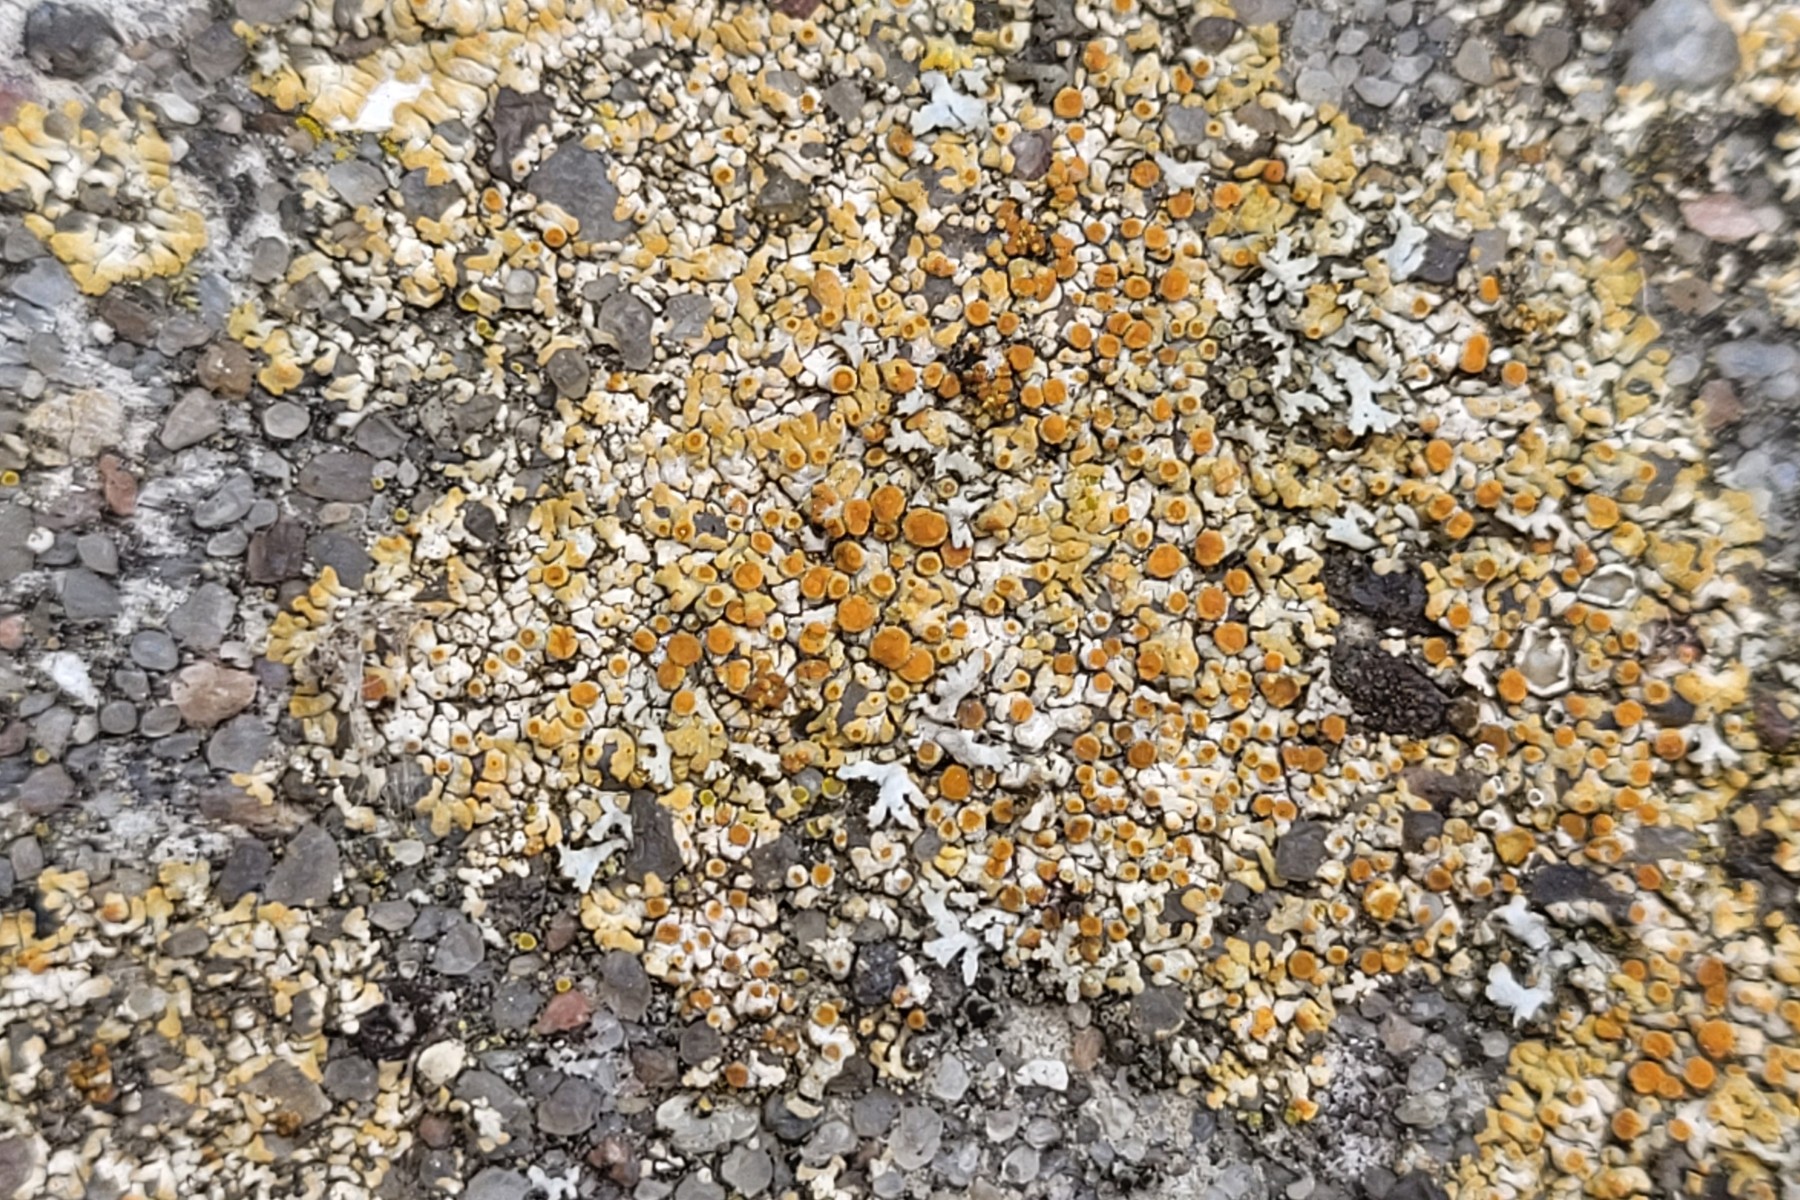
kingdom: Fungi
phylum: Ascomycota
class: Lecanoromycetes
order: Teloschistales
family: Teloschistaceae
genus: Calogaya
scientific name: Calogaya pusilla
